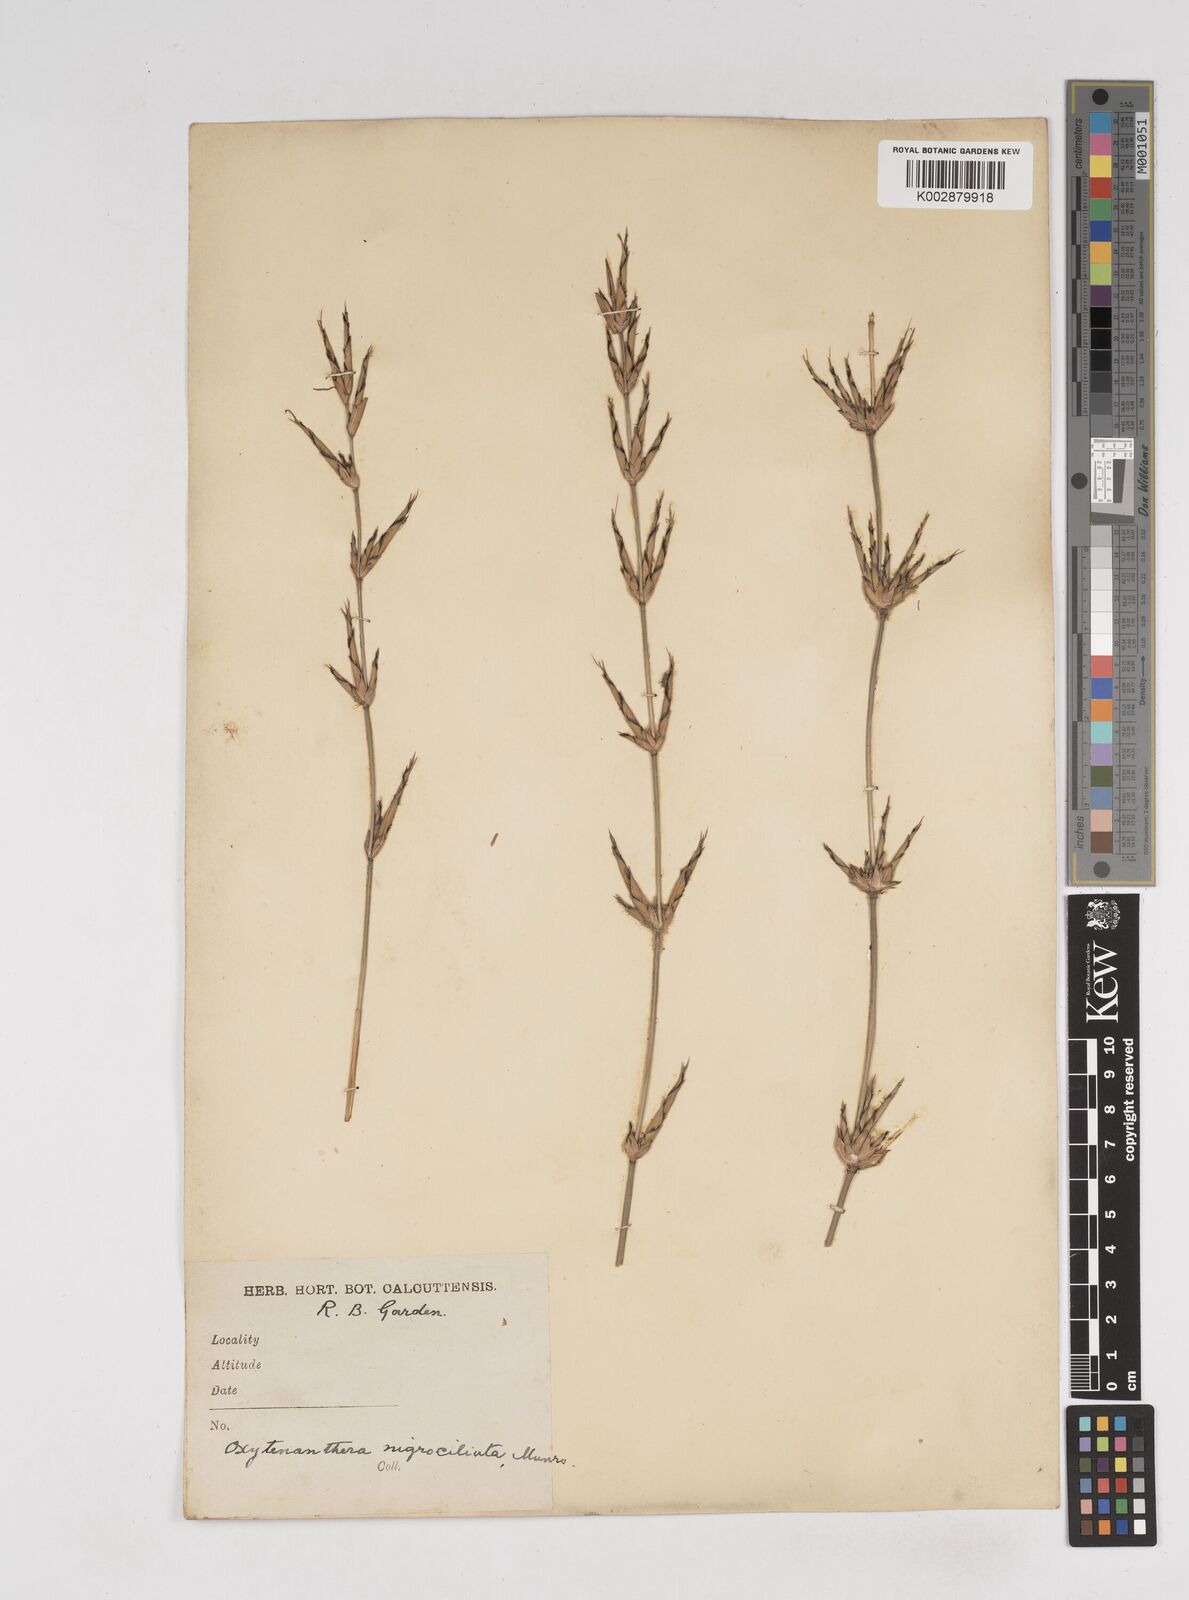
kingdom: Plantae
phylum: Tracheophyta
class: Liliopsida
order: Poales
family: Poaceae
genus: Gigantochloa
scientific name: Gigantochloa nigrociliata
